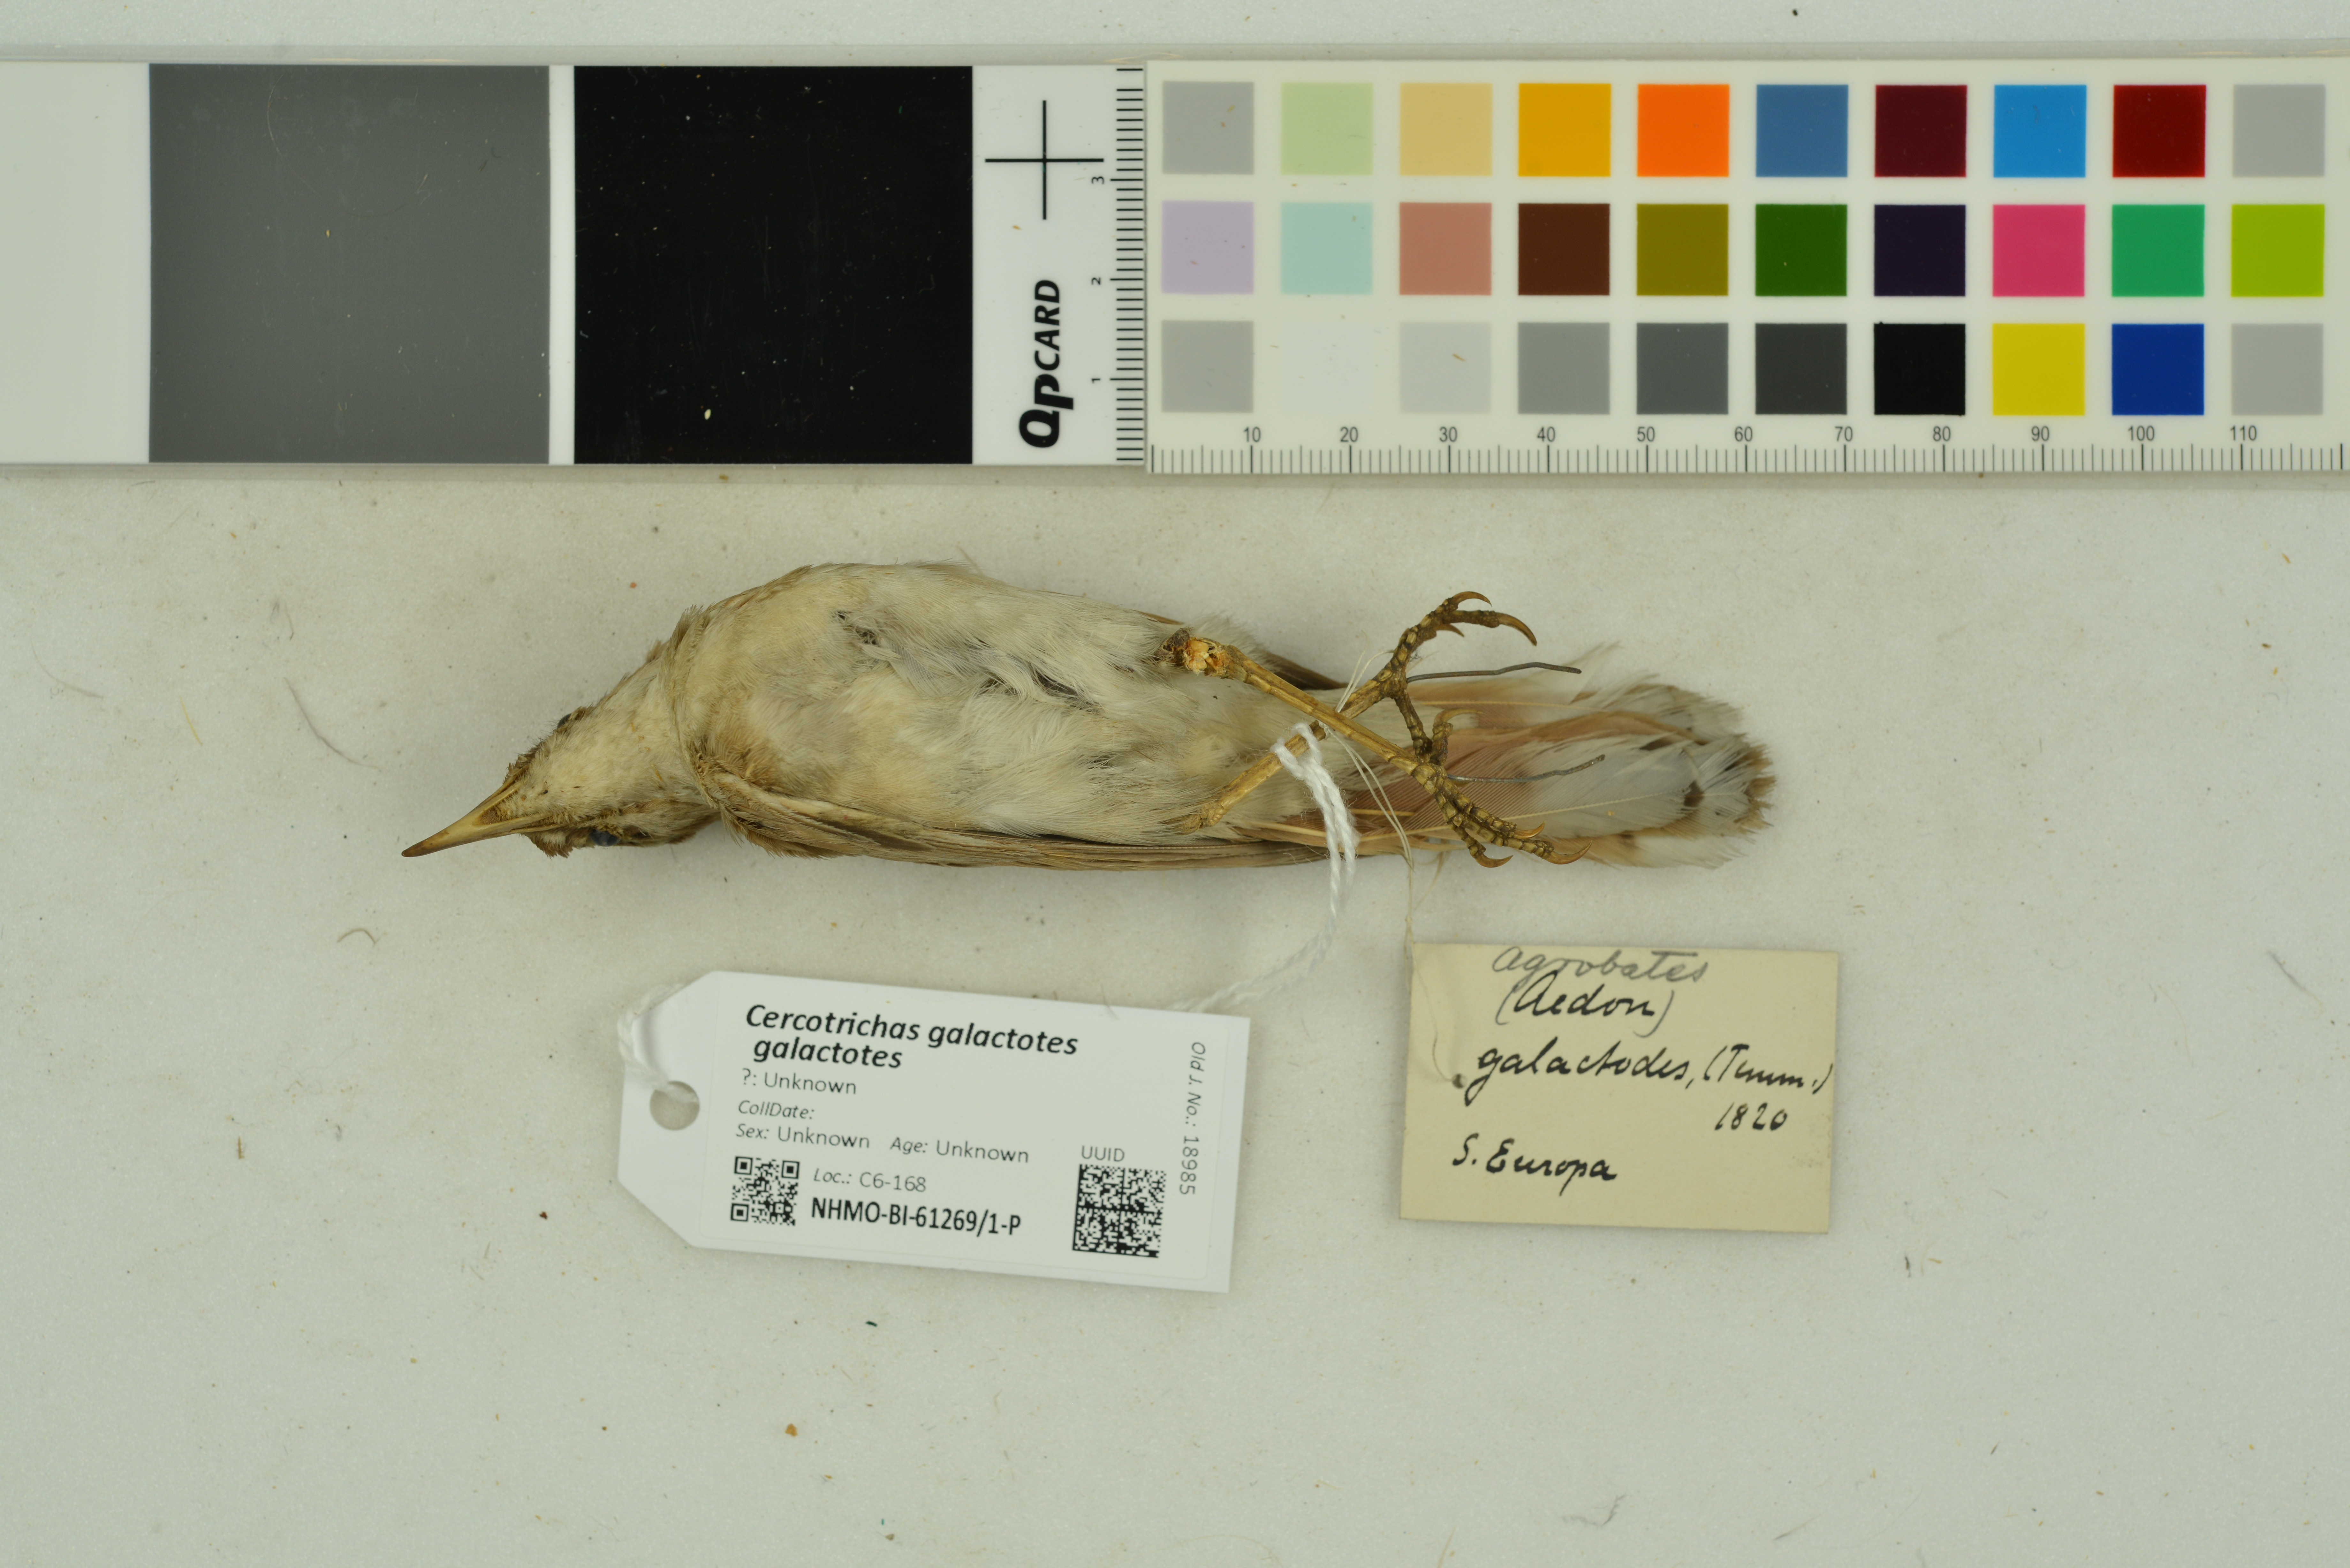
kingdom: Animalia
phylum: Chordata
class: Aves
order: Passeriformes
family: Muscicapidae
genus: Erythropygia
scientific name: Erythropygia galactotes
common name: Rufous-tailed scrub robin
